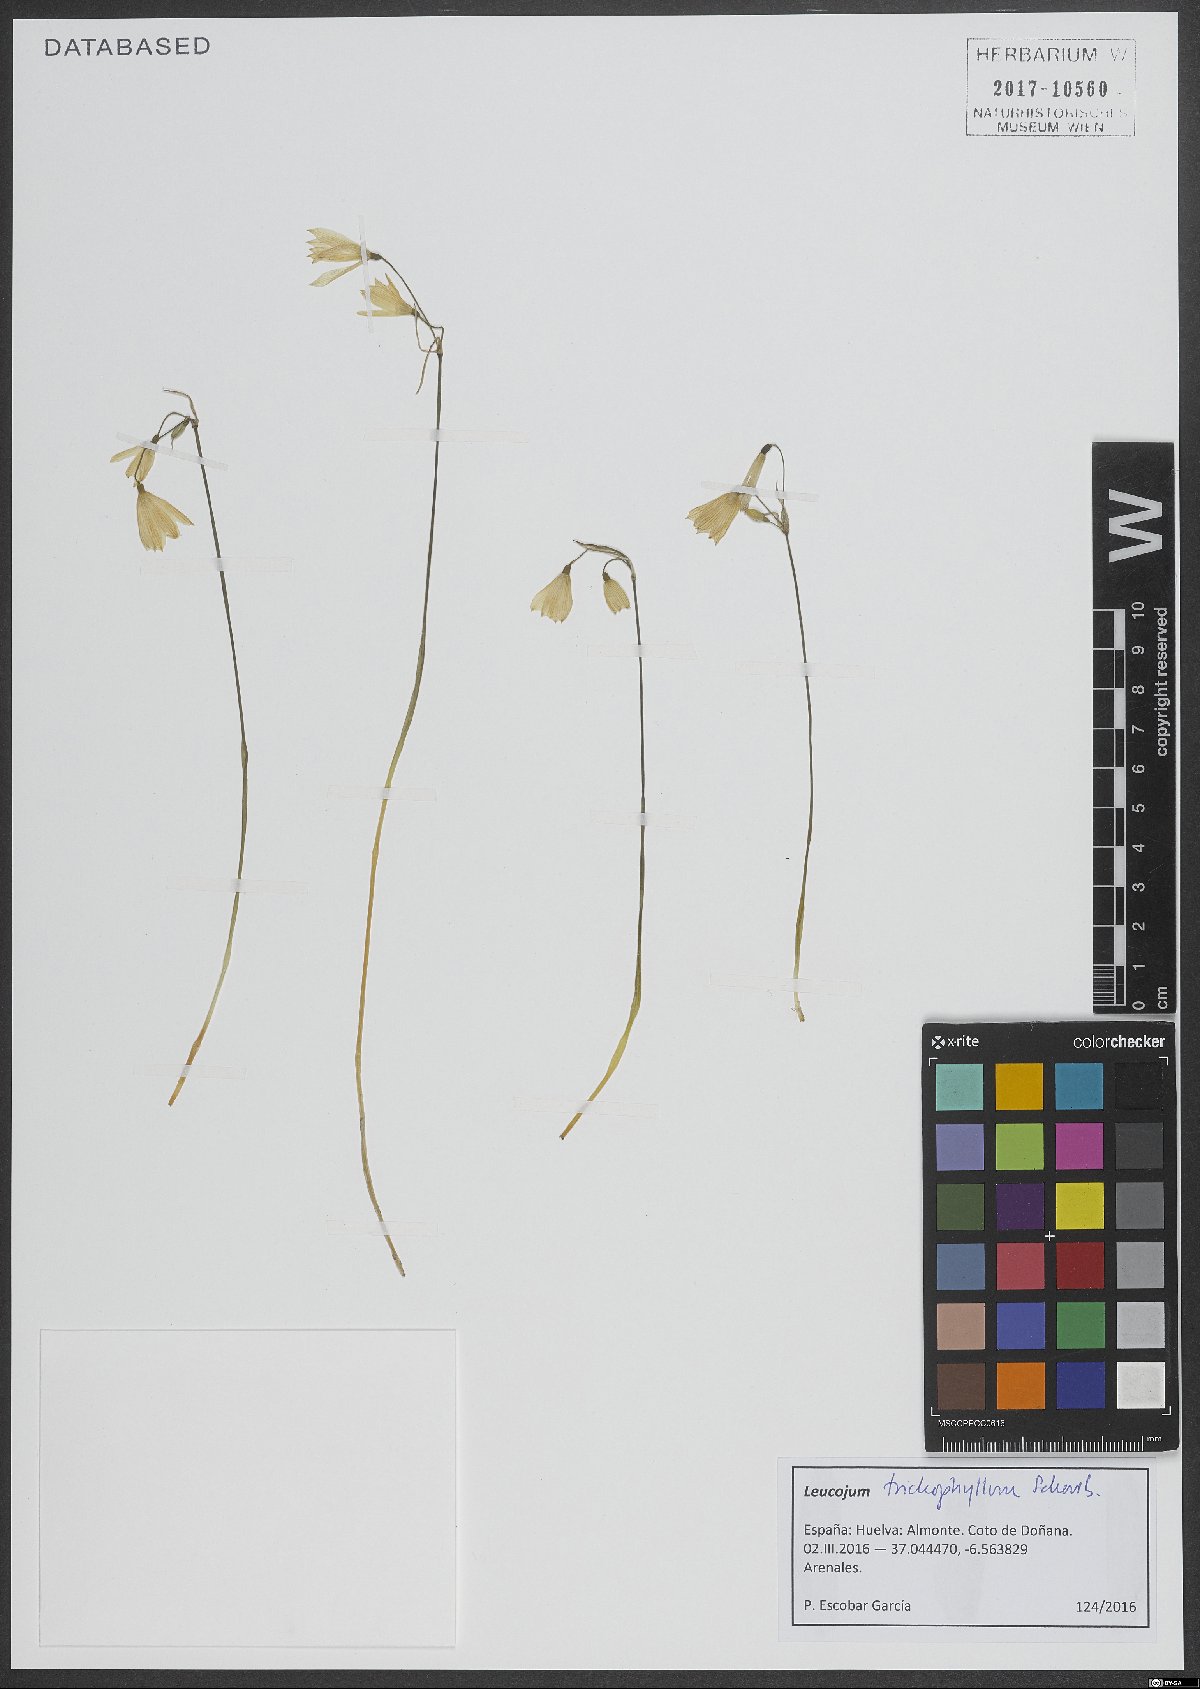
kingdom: Plantae
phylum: Tracheophyta
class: Liliopsida
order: Asparagales
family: Amaryllidaceae
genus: Acis
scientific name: Acis trichophylla
